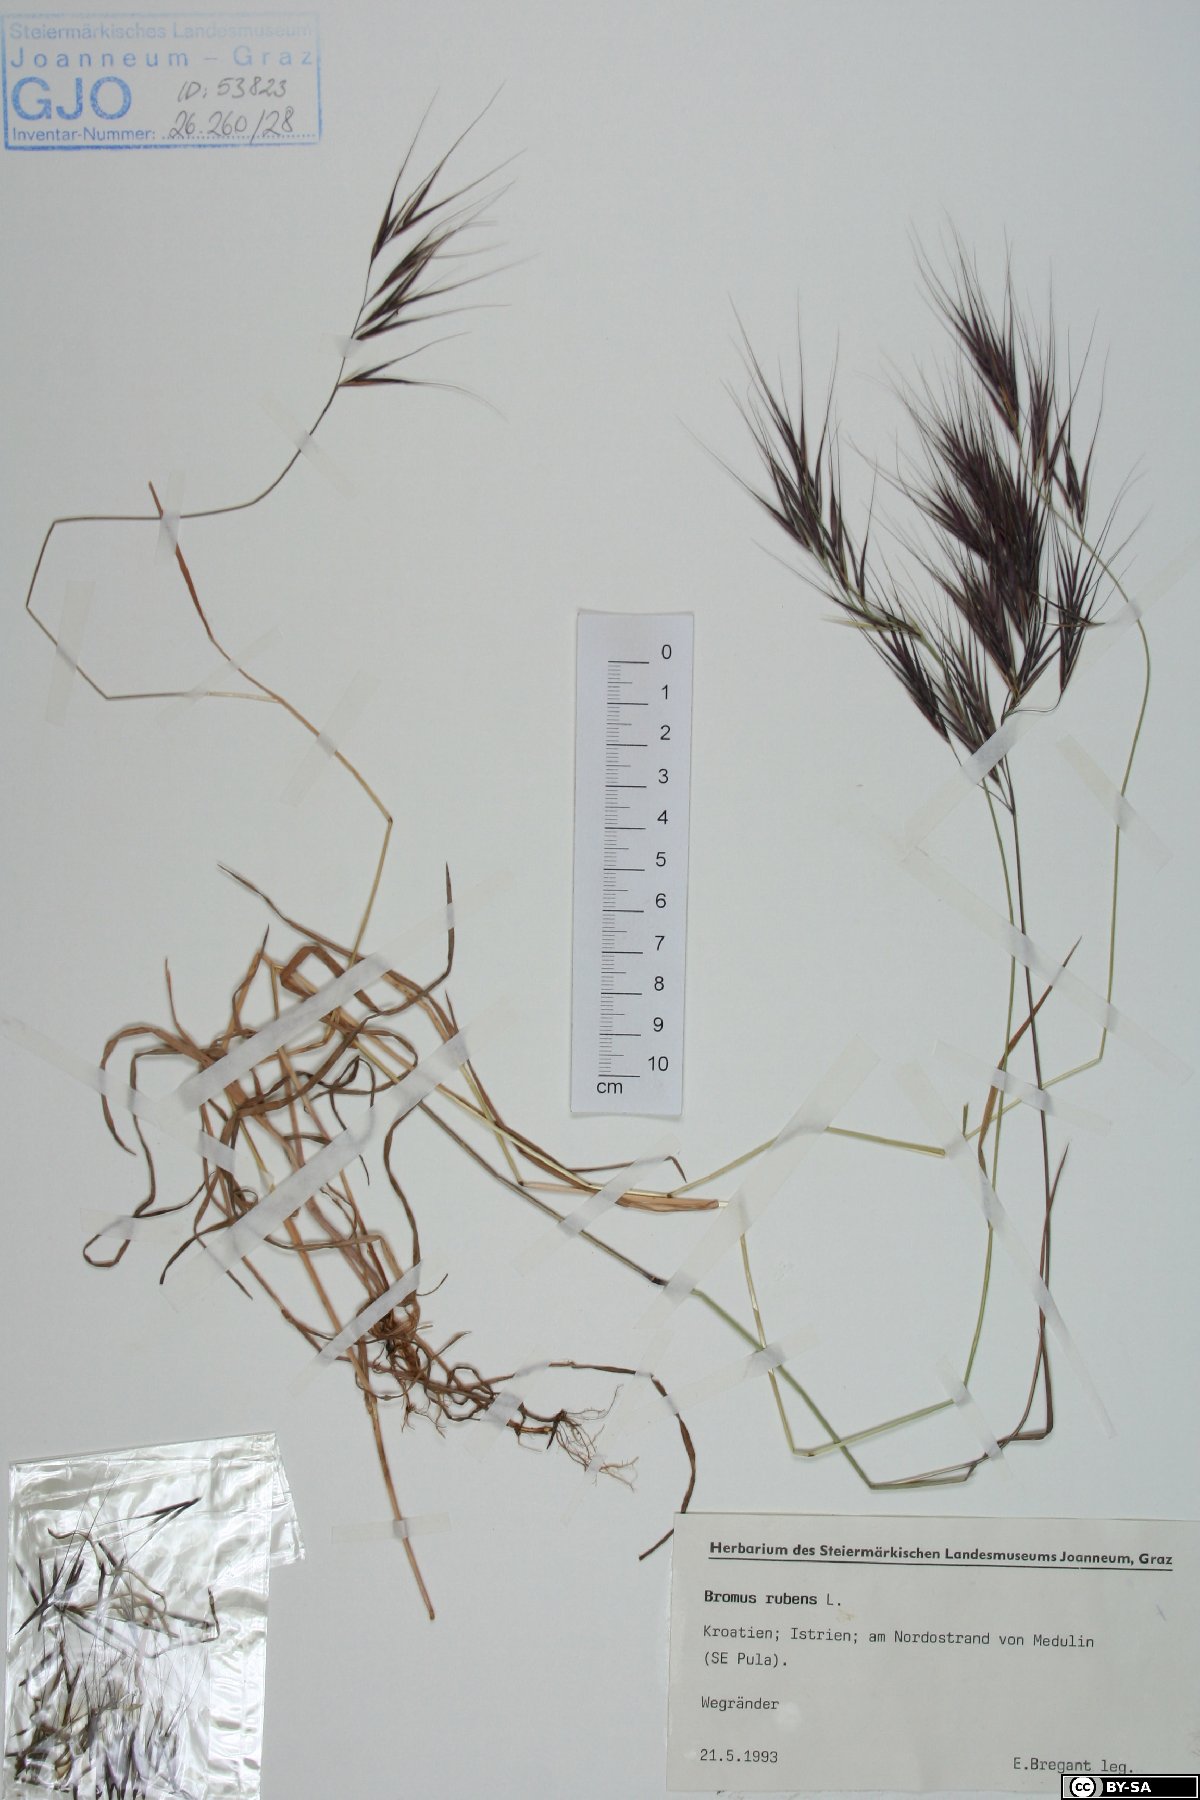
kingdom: Plantae
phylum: Tracheophyta
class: Liliopsida
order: Poales
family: Poaceae
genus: Bromus
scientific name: Bromus rubens
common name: Red brome
